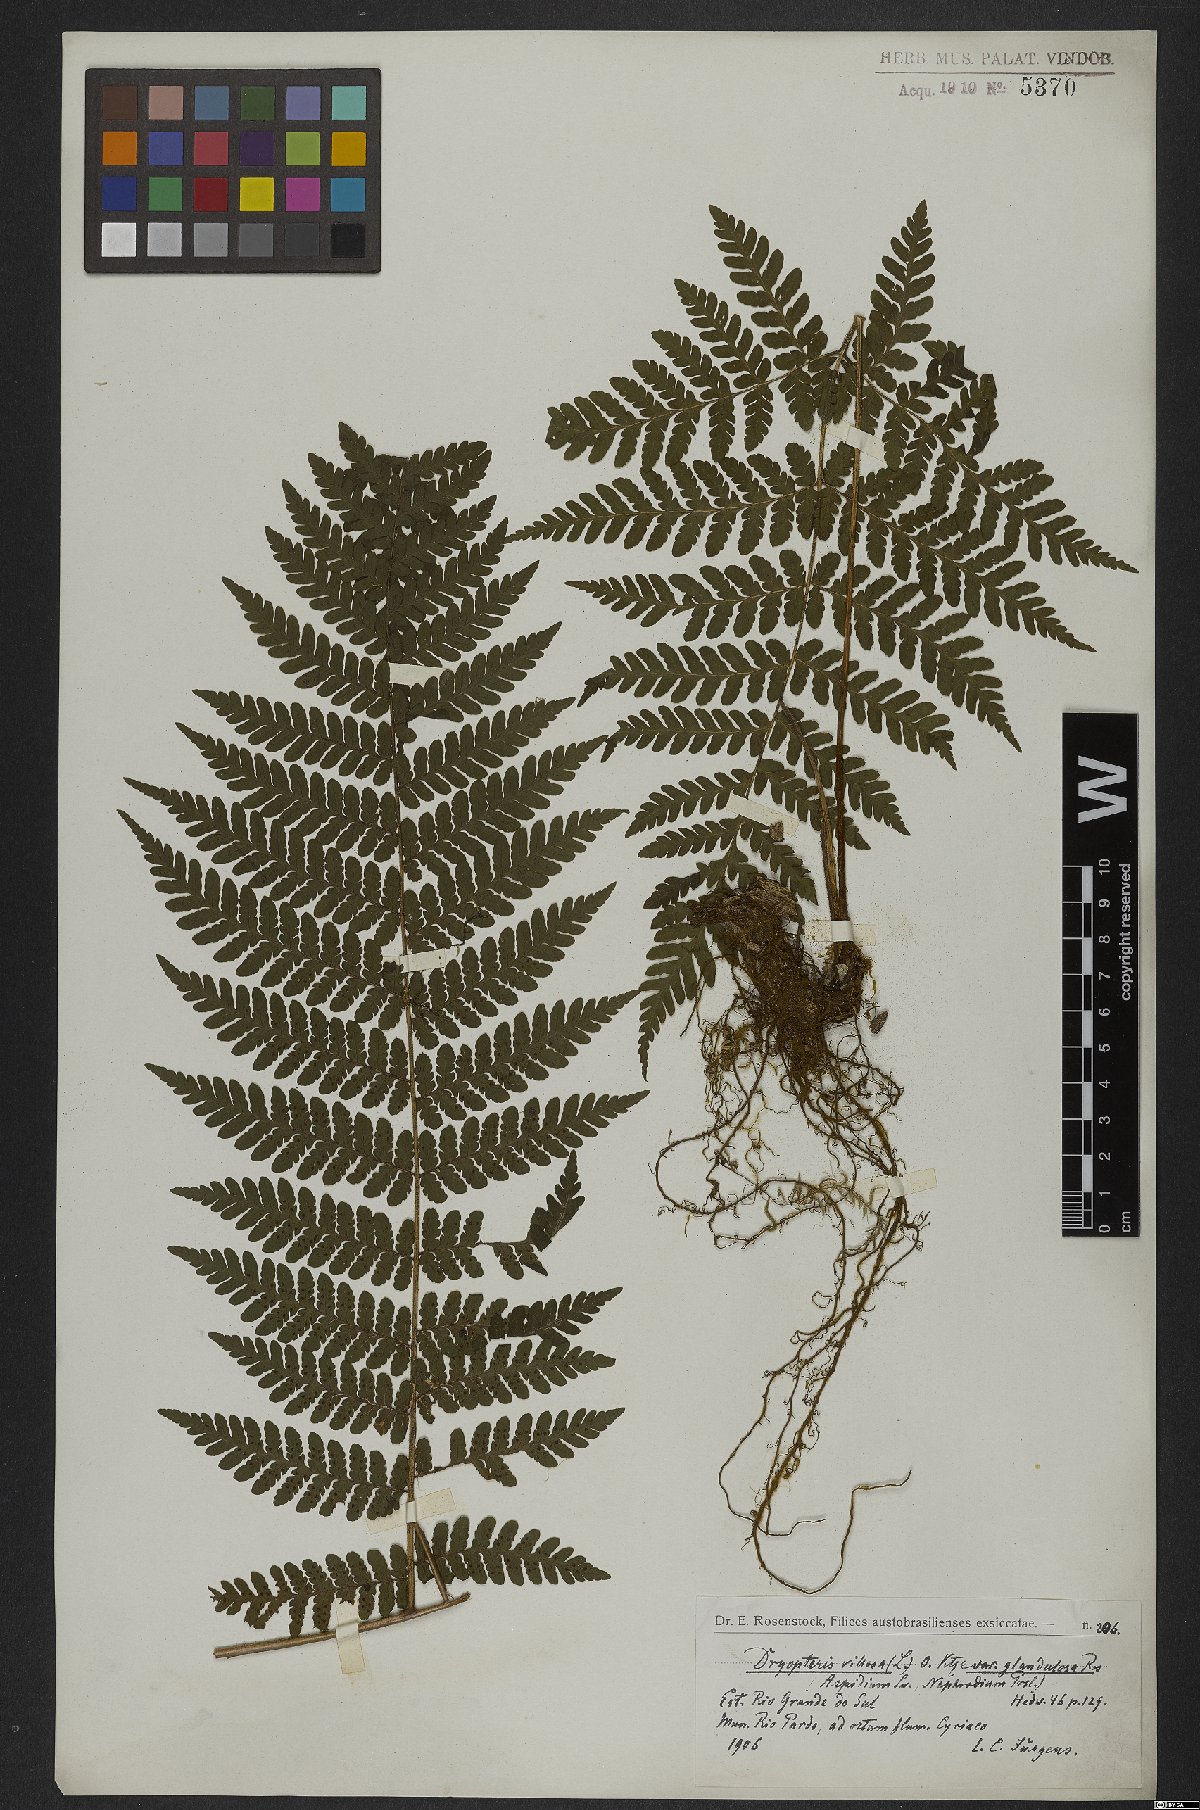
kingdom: Plantae
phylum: Tracheophyta
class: Polypodiopsida
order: Polypodiales
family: Dryopteridaceae
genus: Megalastrum
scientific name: Megalastrum villosum
